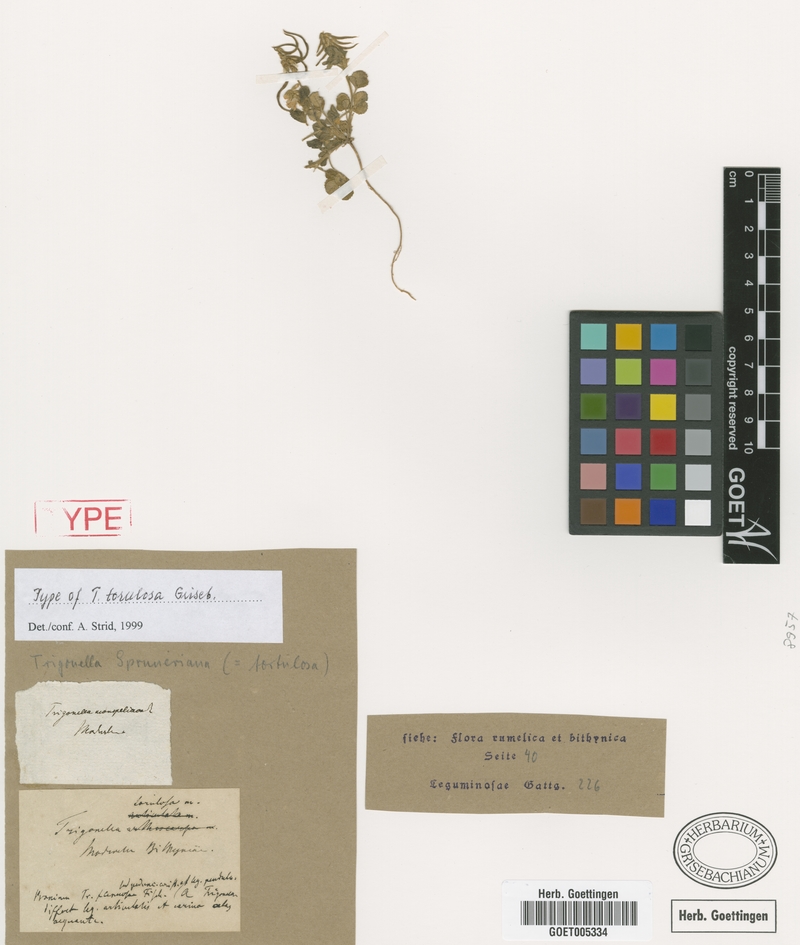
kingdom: Plantae
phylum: Tracheophyta
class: Magnoliopsida
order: Fabales
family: Fabaceae
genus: Trigonella
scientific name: Trigonella spruneriana
